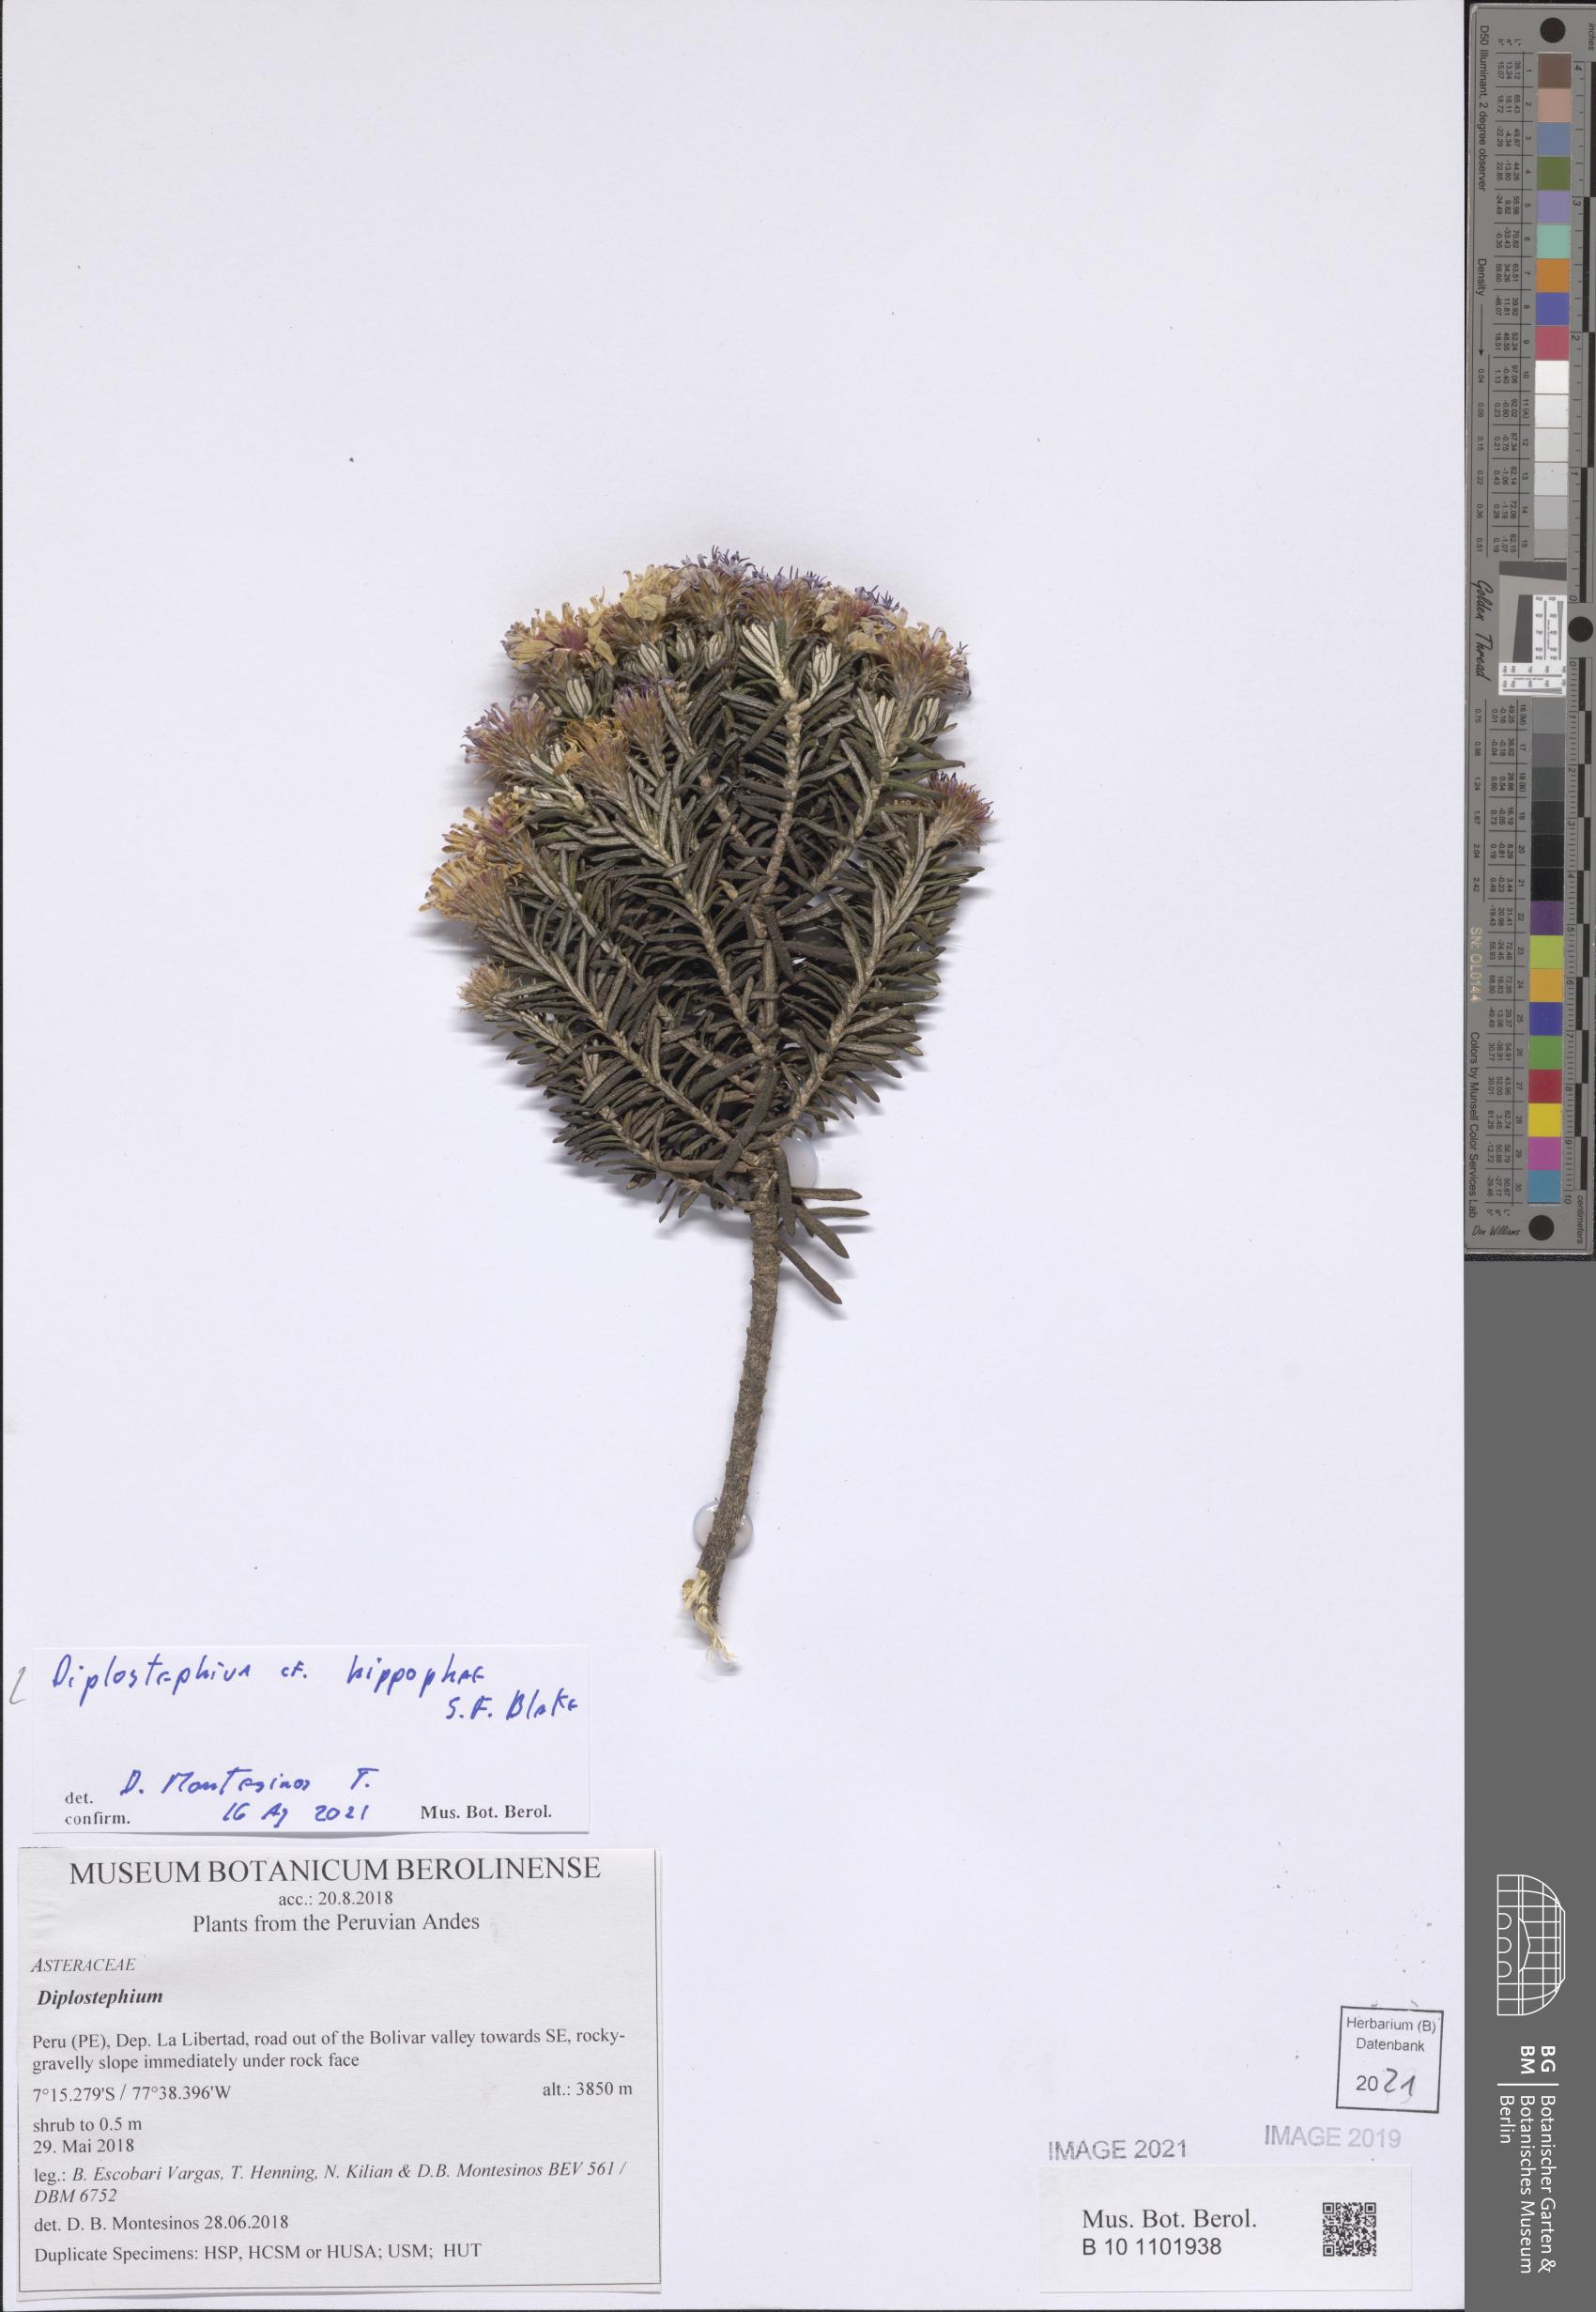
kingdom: Plantae
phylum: Tracheophyta
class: Magnoliopsida
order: Asterales
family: Asteraceae
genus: Diplostephium
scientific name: Diplostephium hippophae
